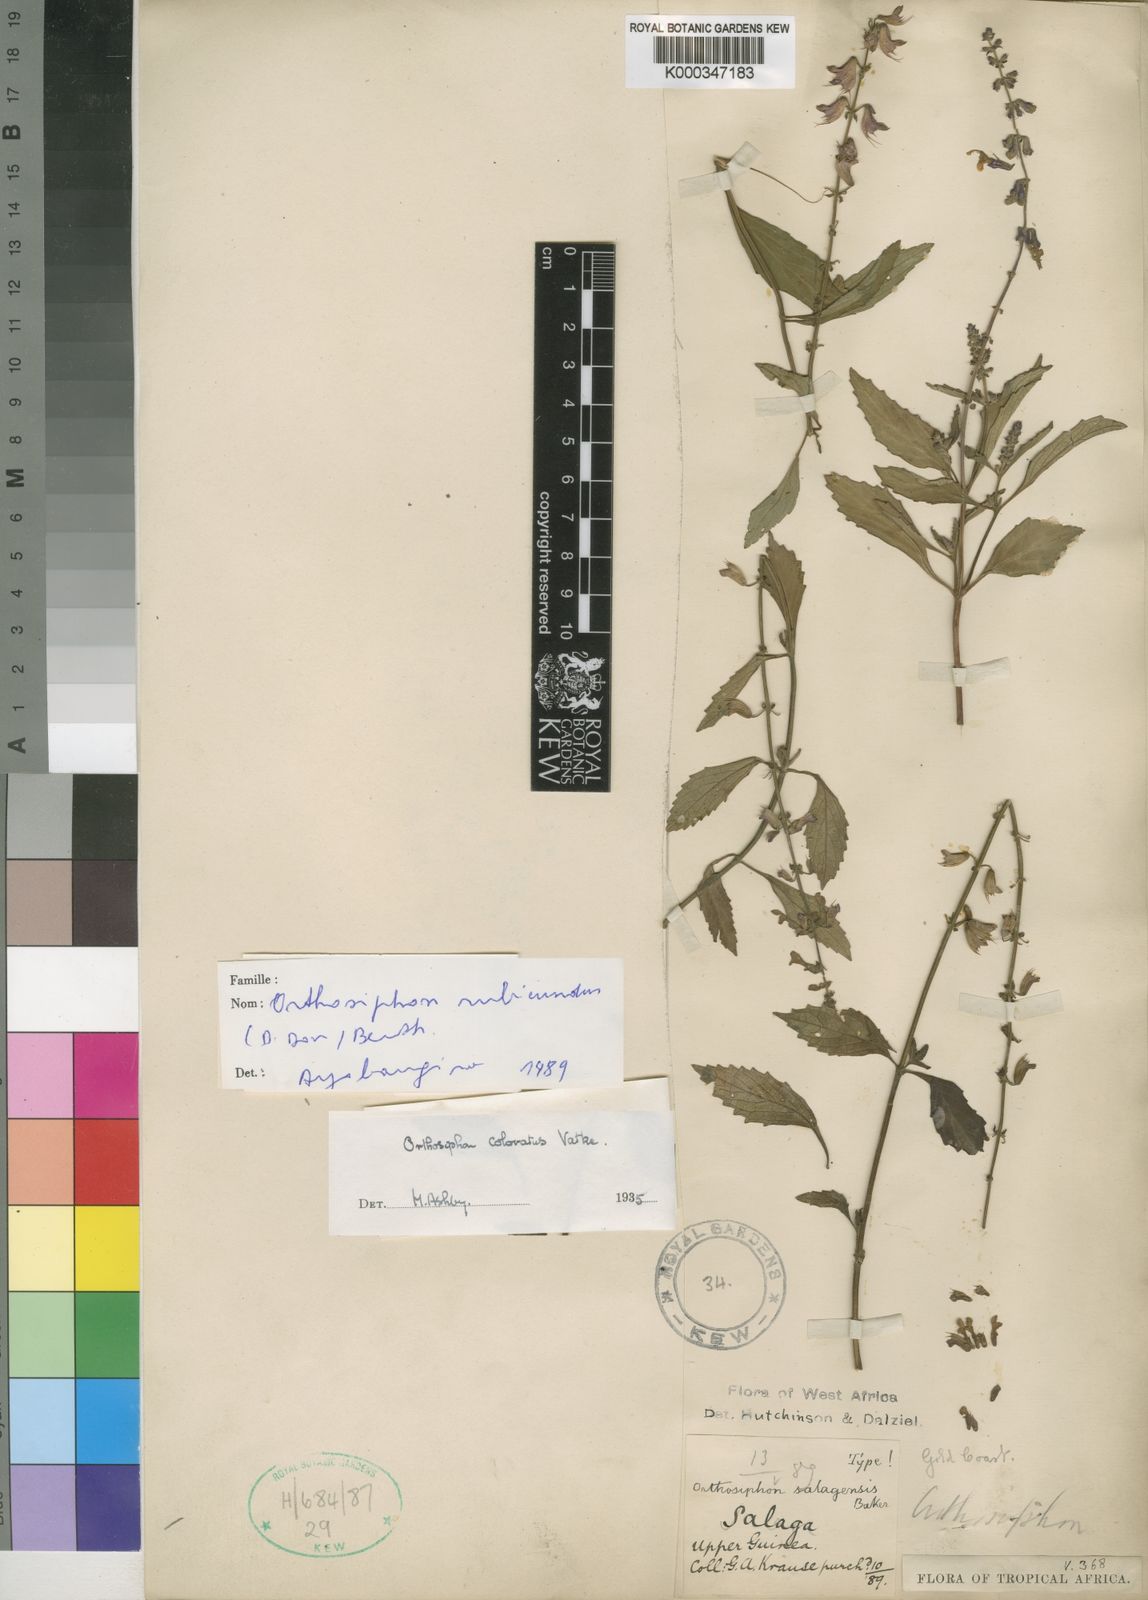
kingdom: Plantae
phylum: Tracheophyta
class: Magnoliopsida
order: Lamiales
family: Lamiaceae
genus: Orthosiphon
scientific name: Orthosiphon schimperi
